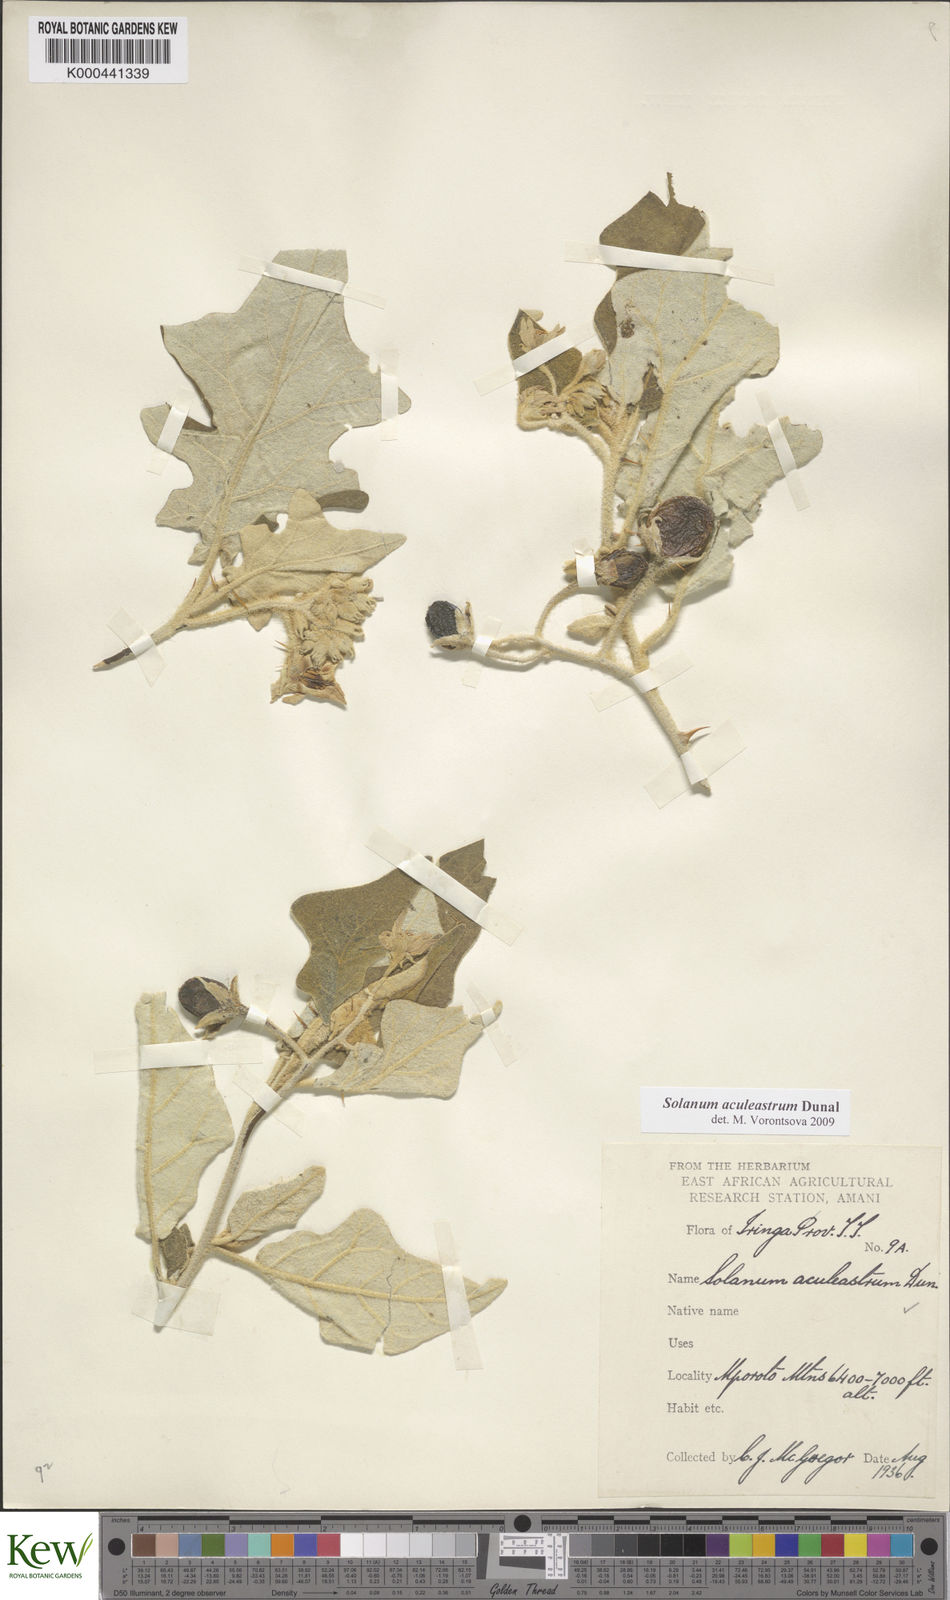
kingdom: Plantae
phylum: Tracheophyta
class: Magnoliopsida
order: Solanales
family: Solanaceae
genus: Solanum
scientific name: Solanum aculeastrum
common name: Goat bitter-apple
